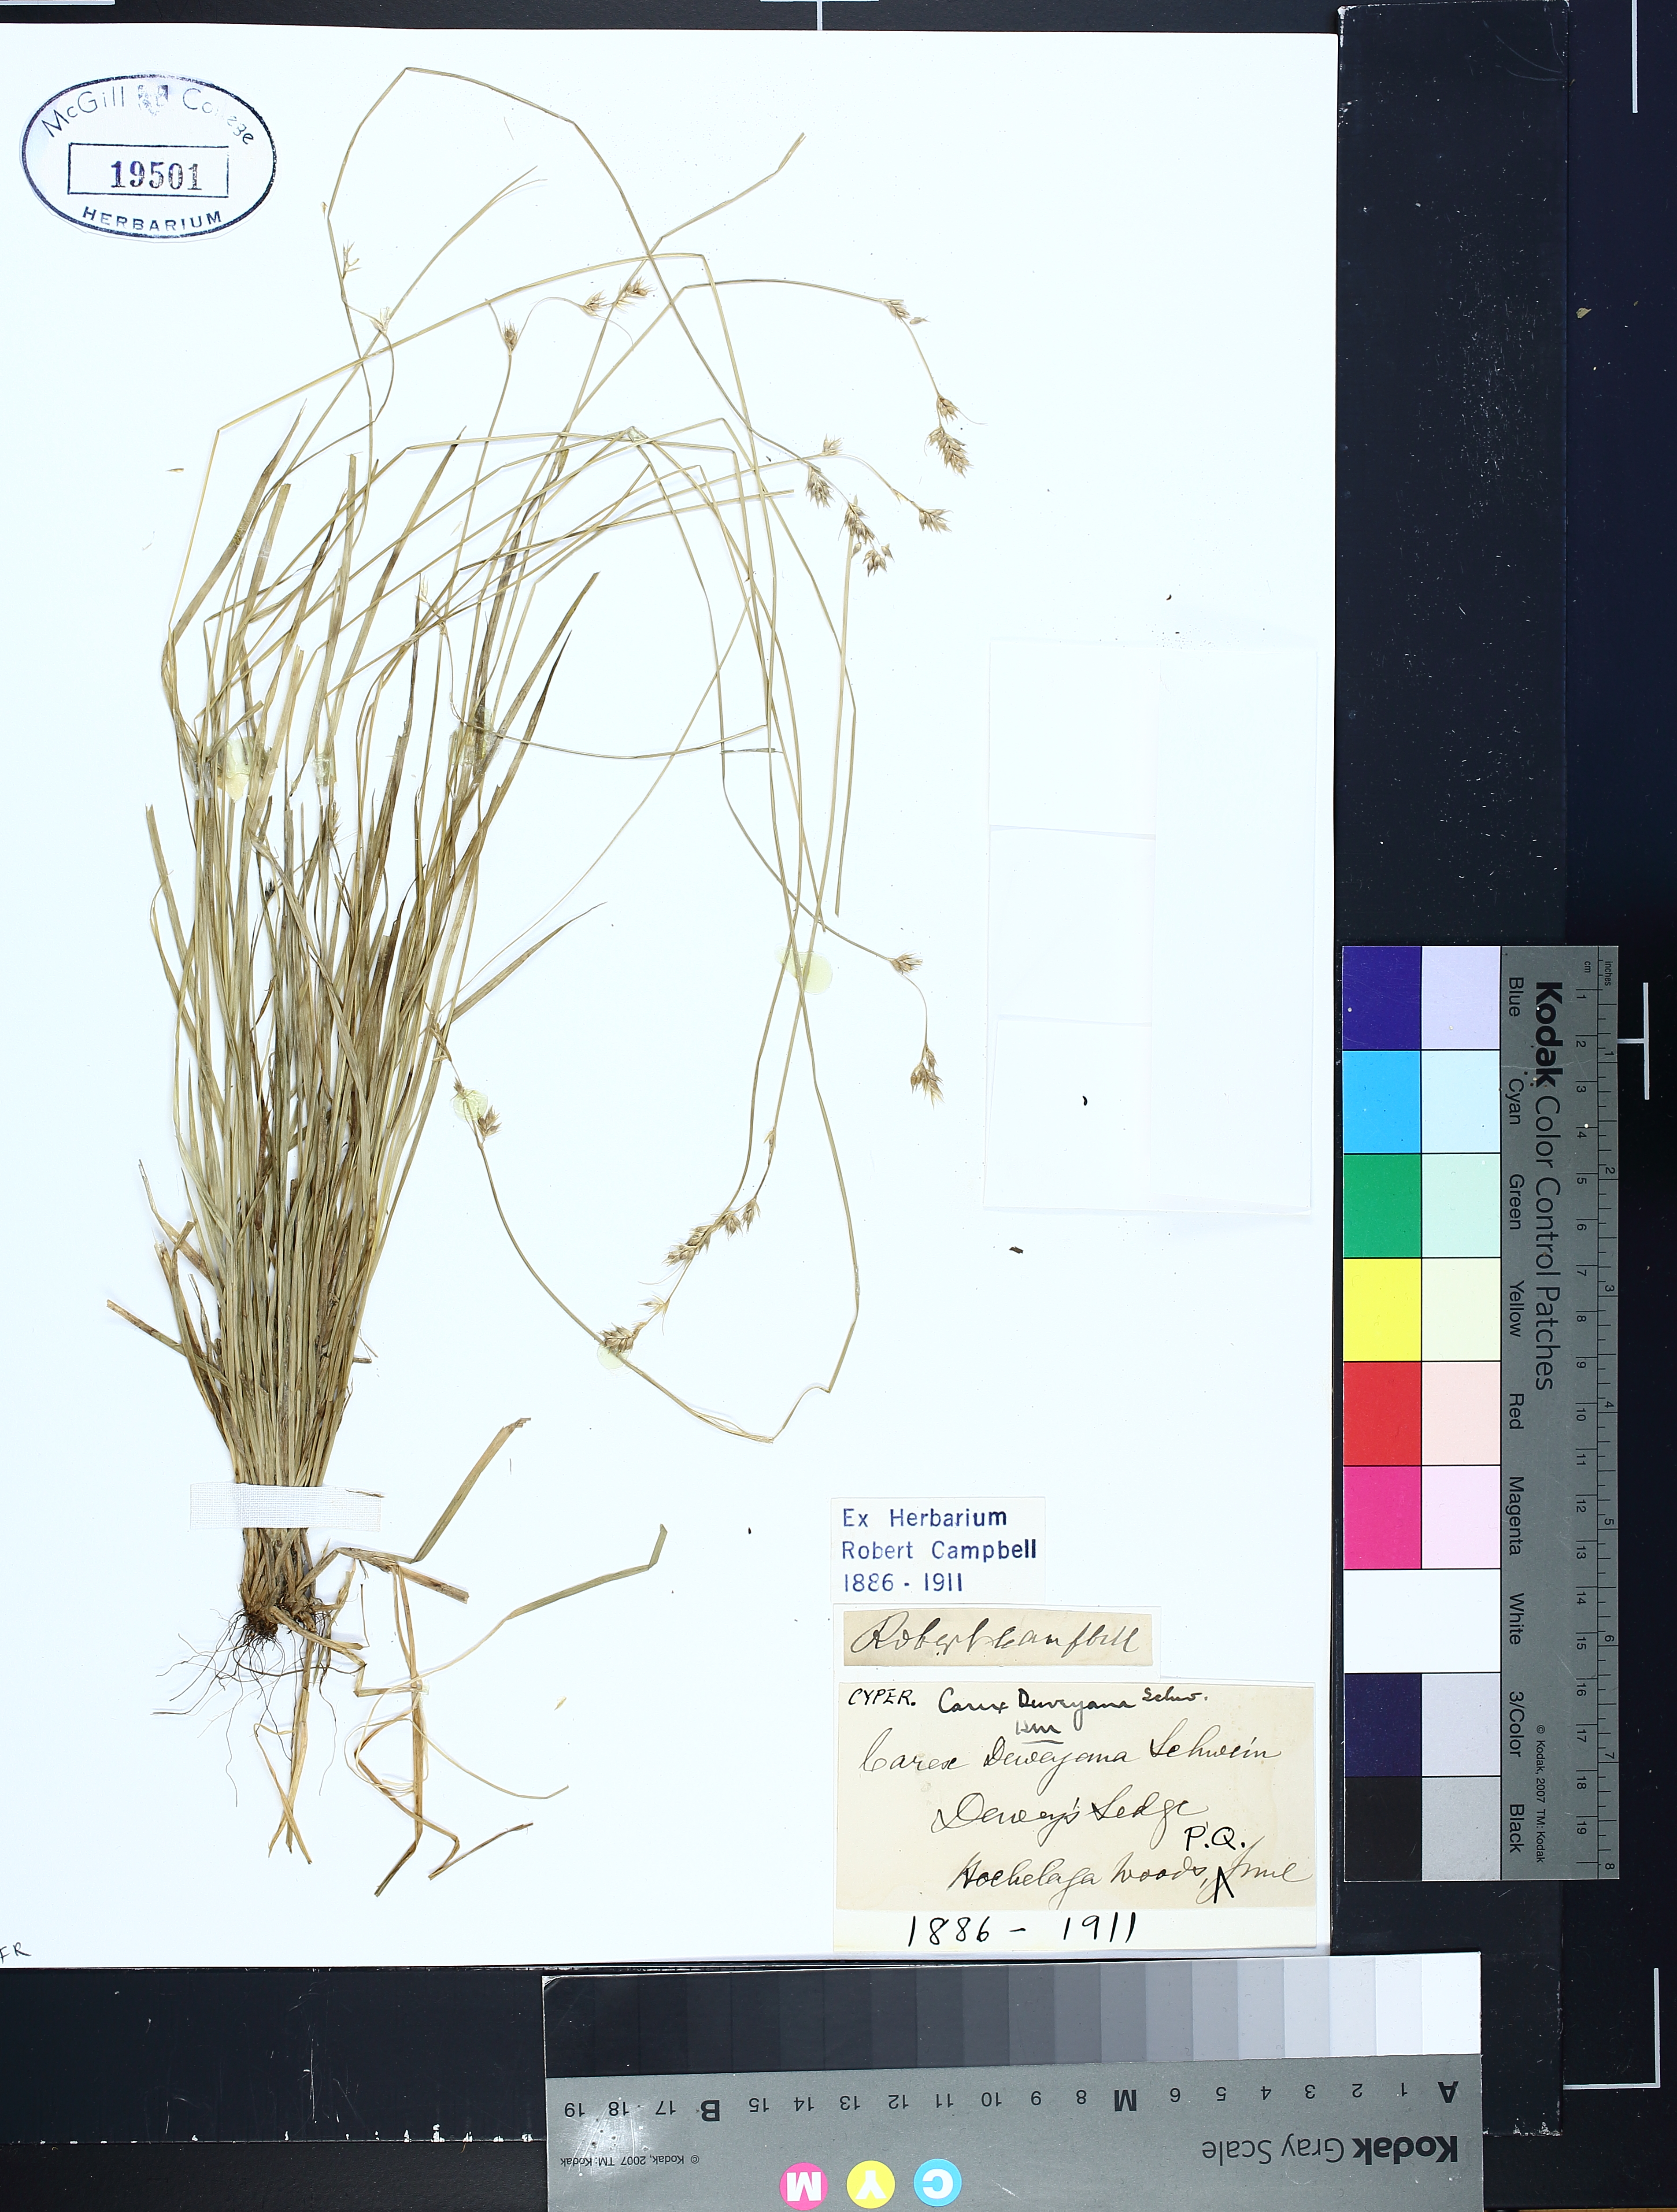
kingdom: Plantae
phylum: Tracheophyta
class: Liliopsida
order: Poales
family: Cyperaceae
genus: Carex
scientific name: Carex deweyana
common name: Dewey's sedge
